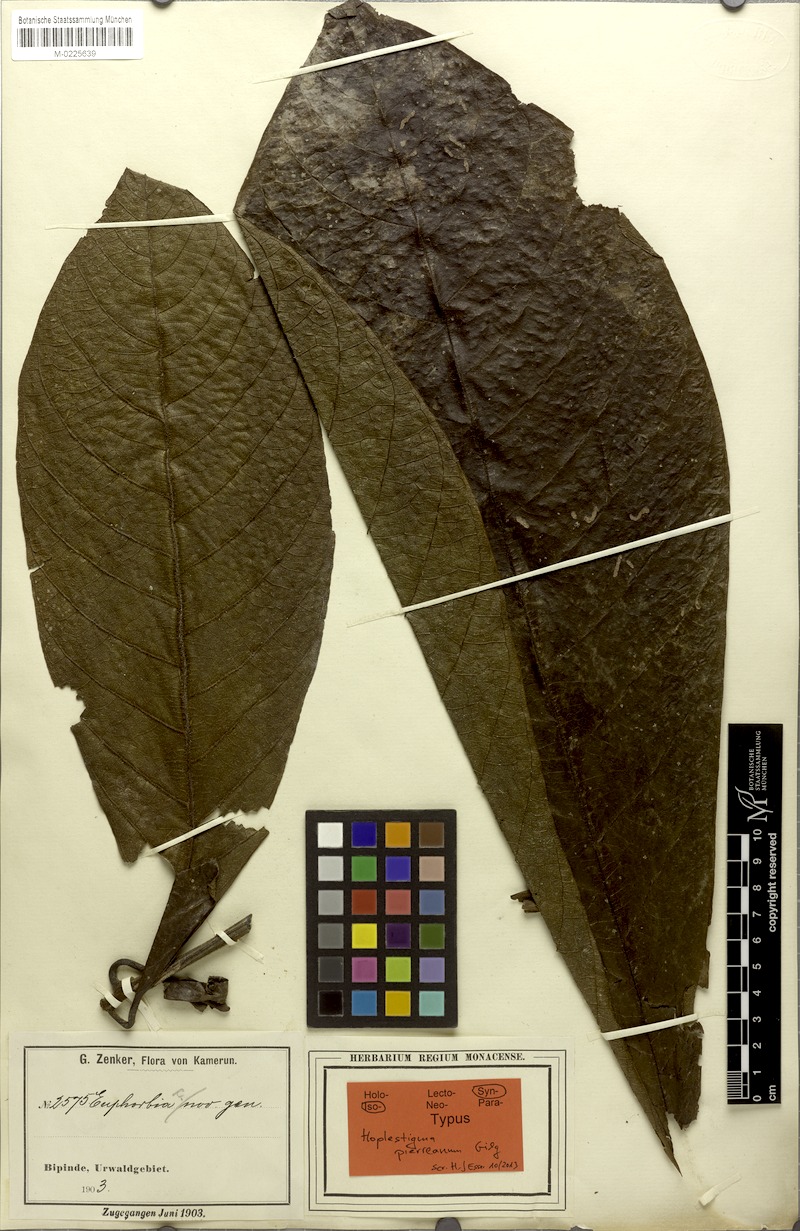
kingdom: Plantae
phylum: Tracheophyta
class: Magnoliopsida
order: Boraginales
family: Hoplestigmataceae
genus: Hoplestigma
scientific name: Hoplestigma pierreanum
